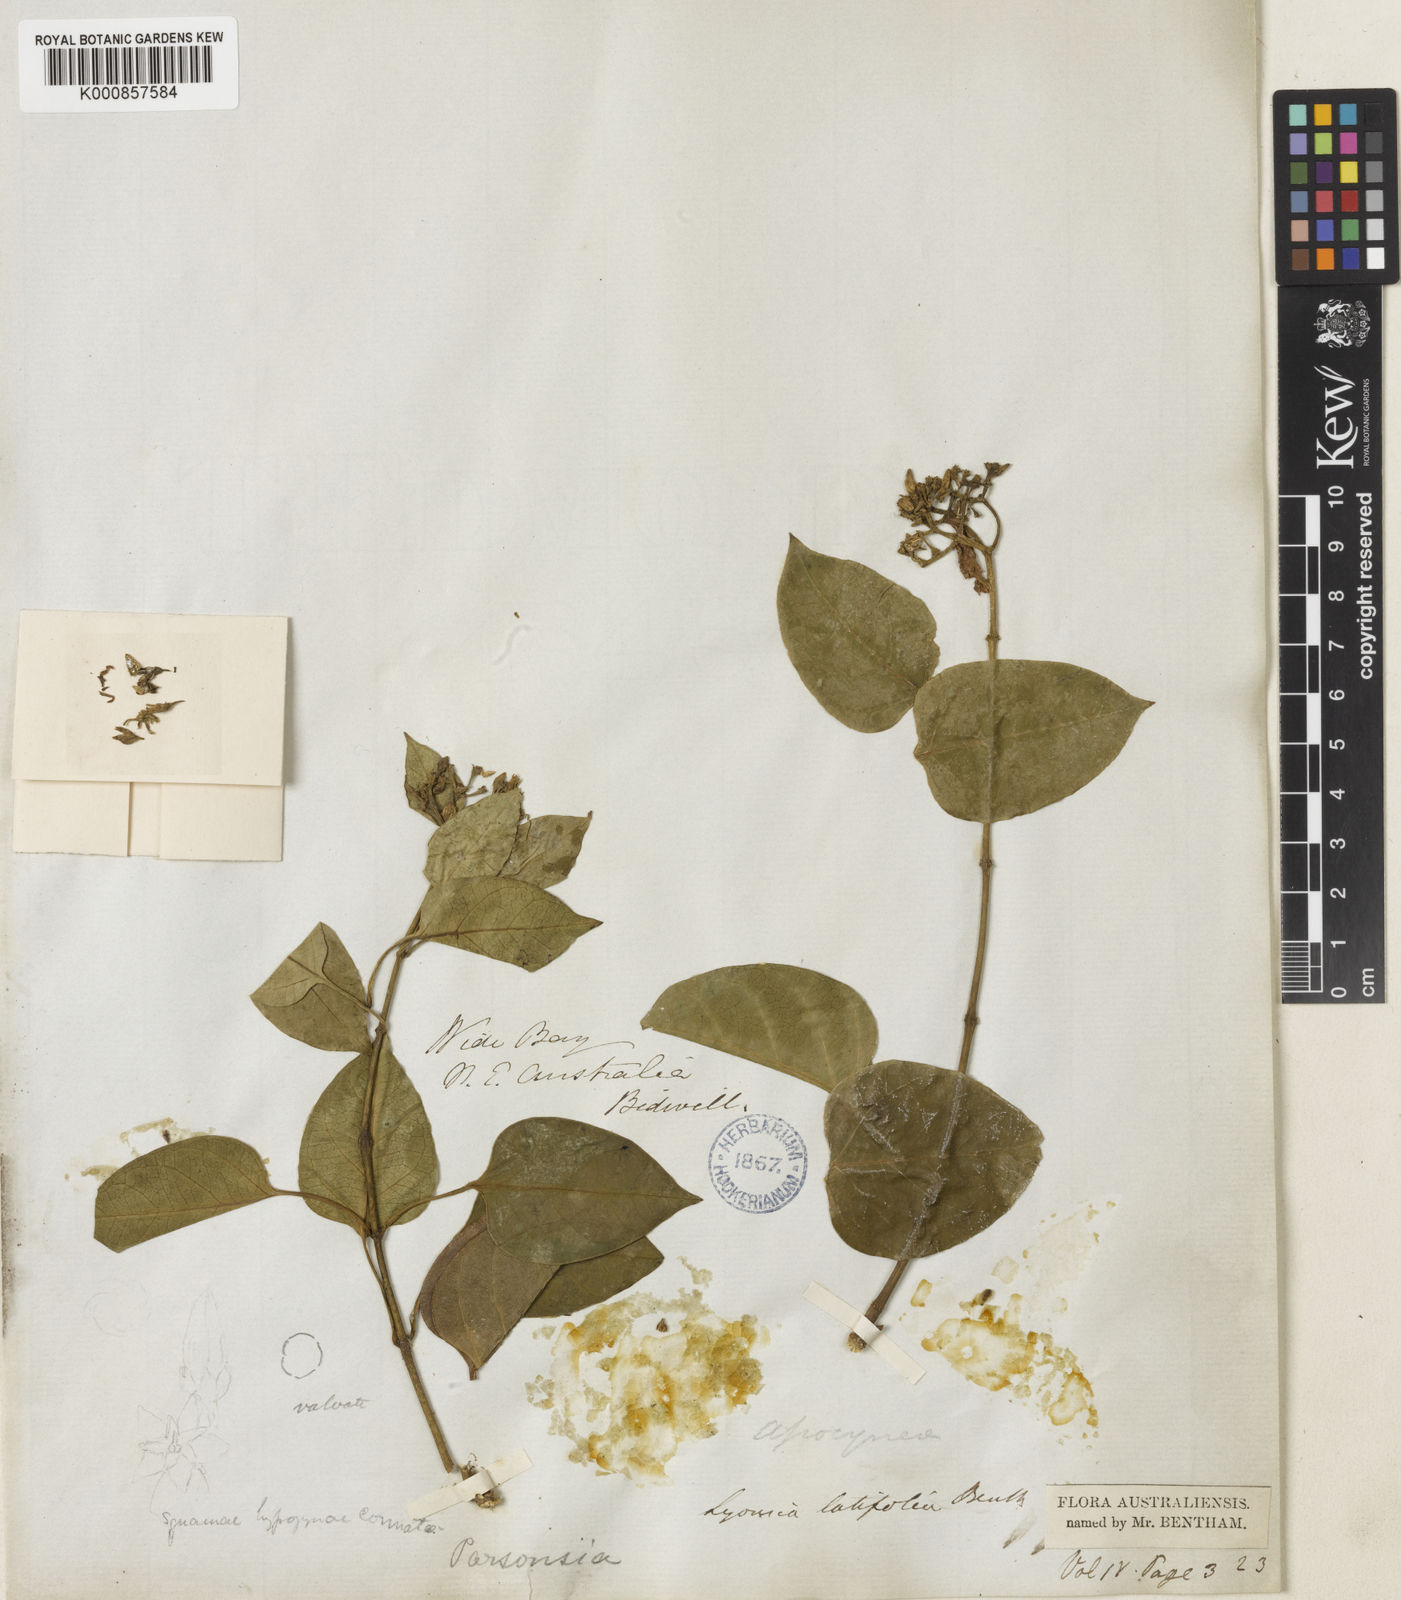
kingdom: Plantae
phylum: Tracheophyta
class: Magnoliopsida
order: Gentianales
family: Apocynaceae
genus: Parsonsia
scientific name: Parsonsia latifolia
